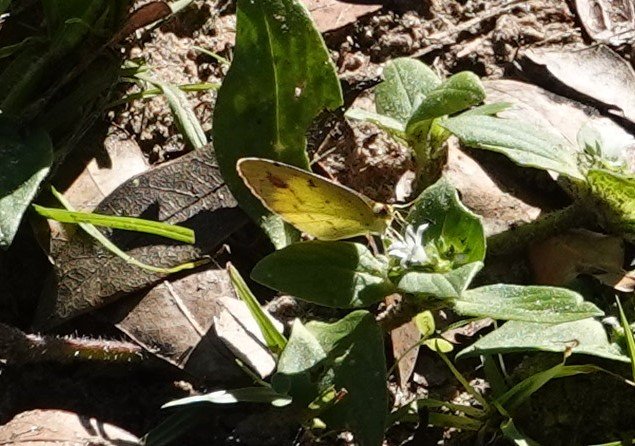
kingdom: Animalia
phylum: Arthropoda
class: Insecta
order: Lepidoptera
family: Pieridae
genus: Pyrisitia
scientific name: Pyrisitia lisa
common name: Little Yellow
